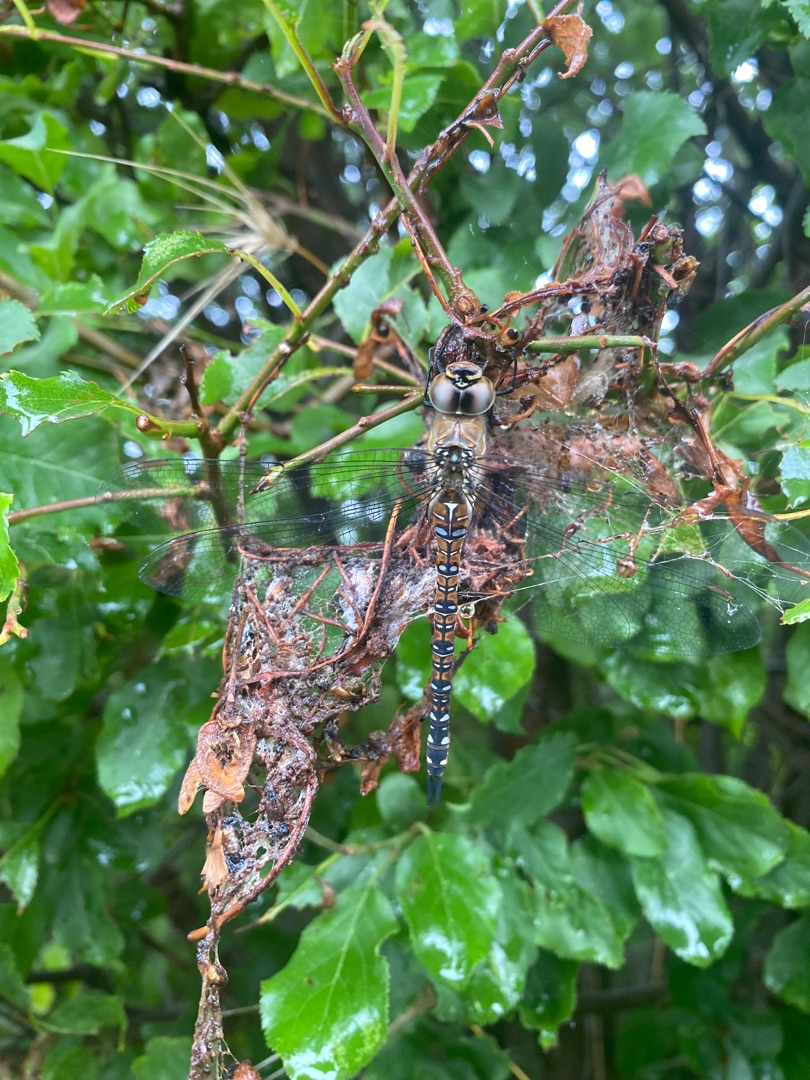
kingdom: Animalia
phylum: Arthropoda
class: Insecta
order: Odonata
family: Aeshnidae
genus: Aeshna
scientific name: Aeshna mixta
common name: Efterårs-mosaikguldsmed
